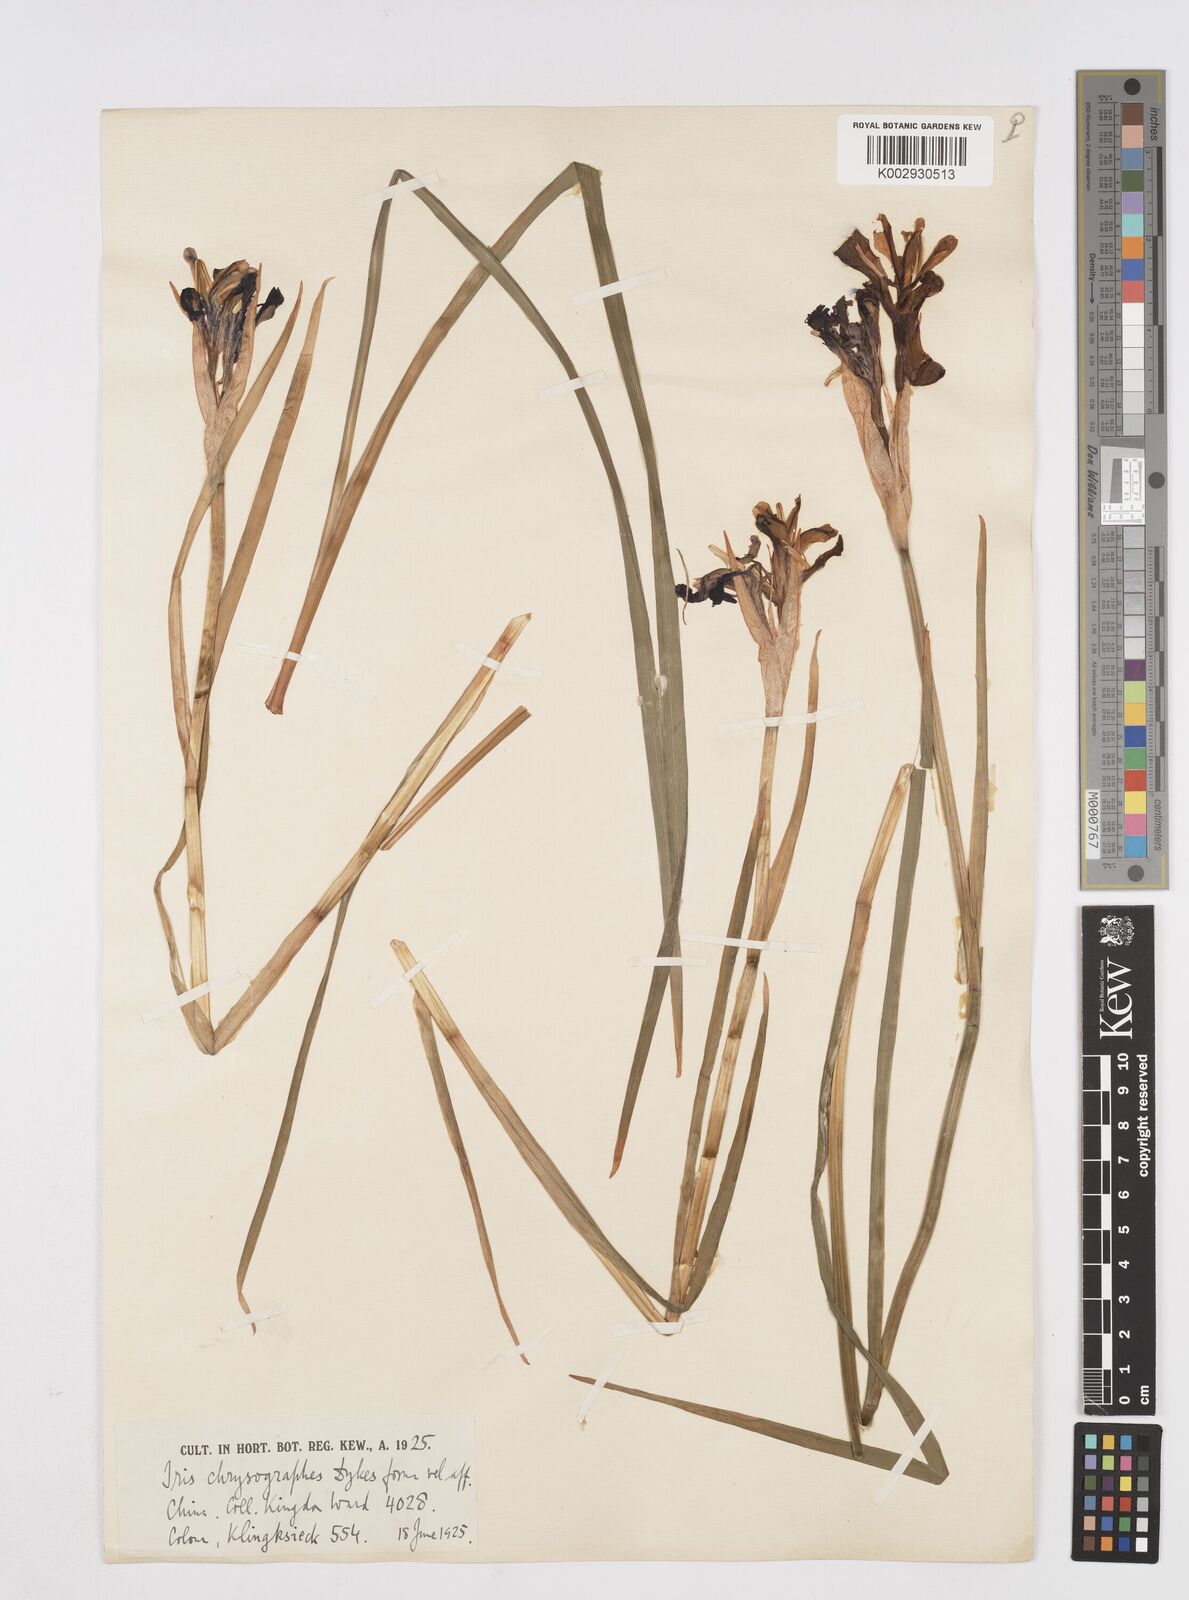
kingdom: Plantae
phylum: Tracheophyta
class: Liliopsida
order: Asparagales
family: Iridaceae
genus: Iris
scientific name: Iris chrysographes
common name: Gold-vein iris
